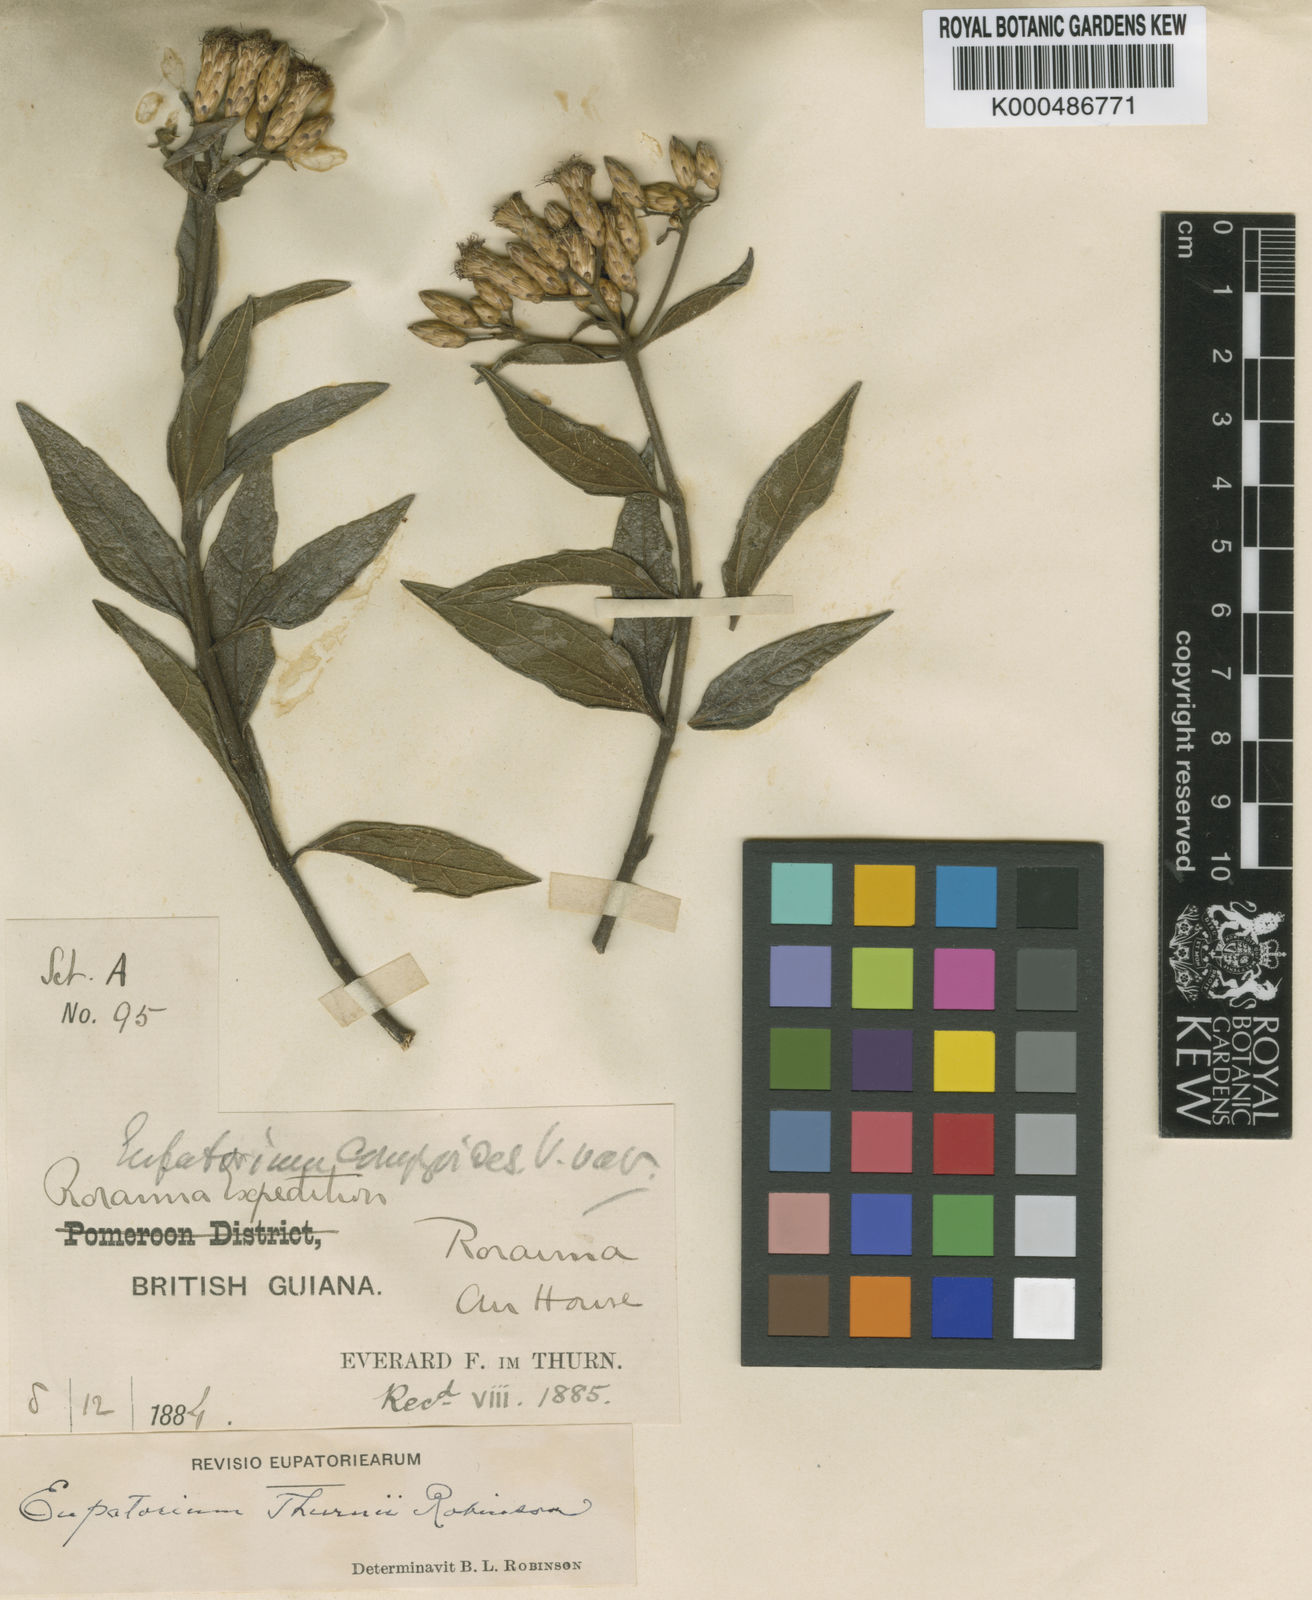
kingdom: Plantae
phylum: Tracheophyta
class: Magnoliopsida
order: Asterales
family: Asteraceae
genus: Chromolaena
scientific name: Chromolaena thurnii
